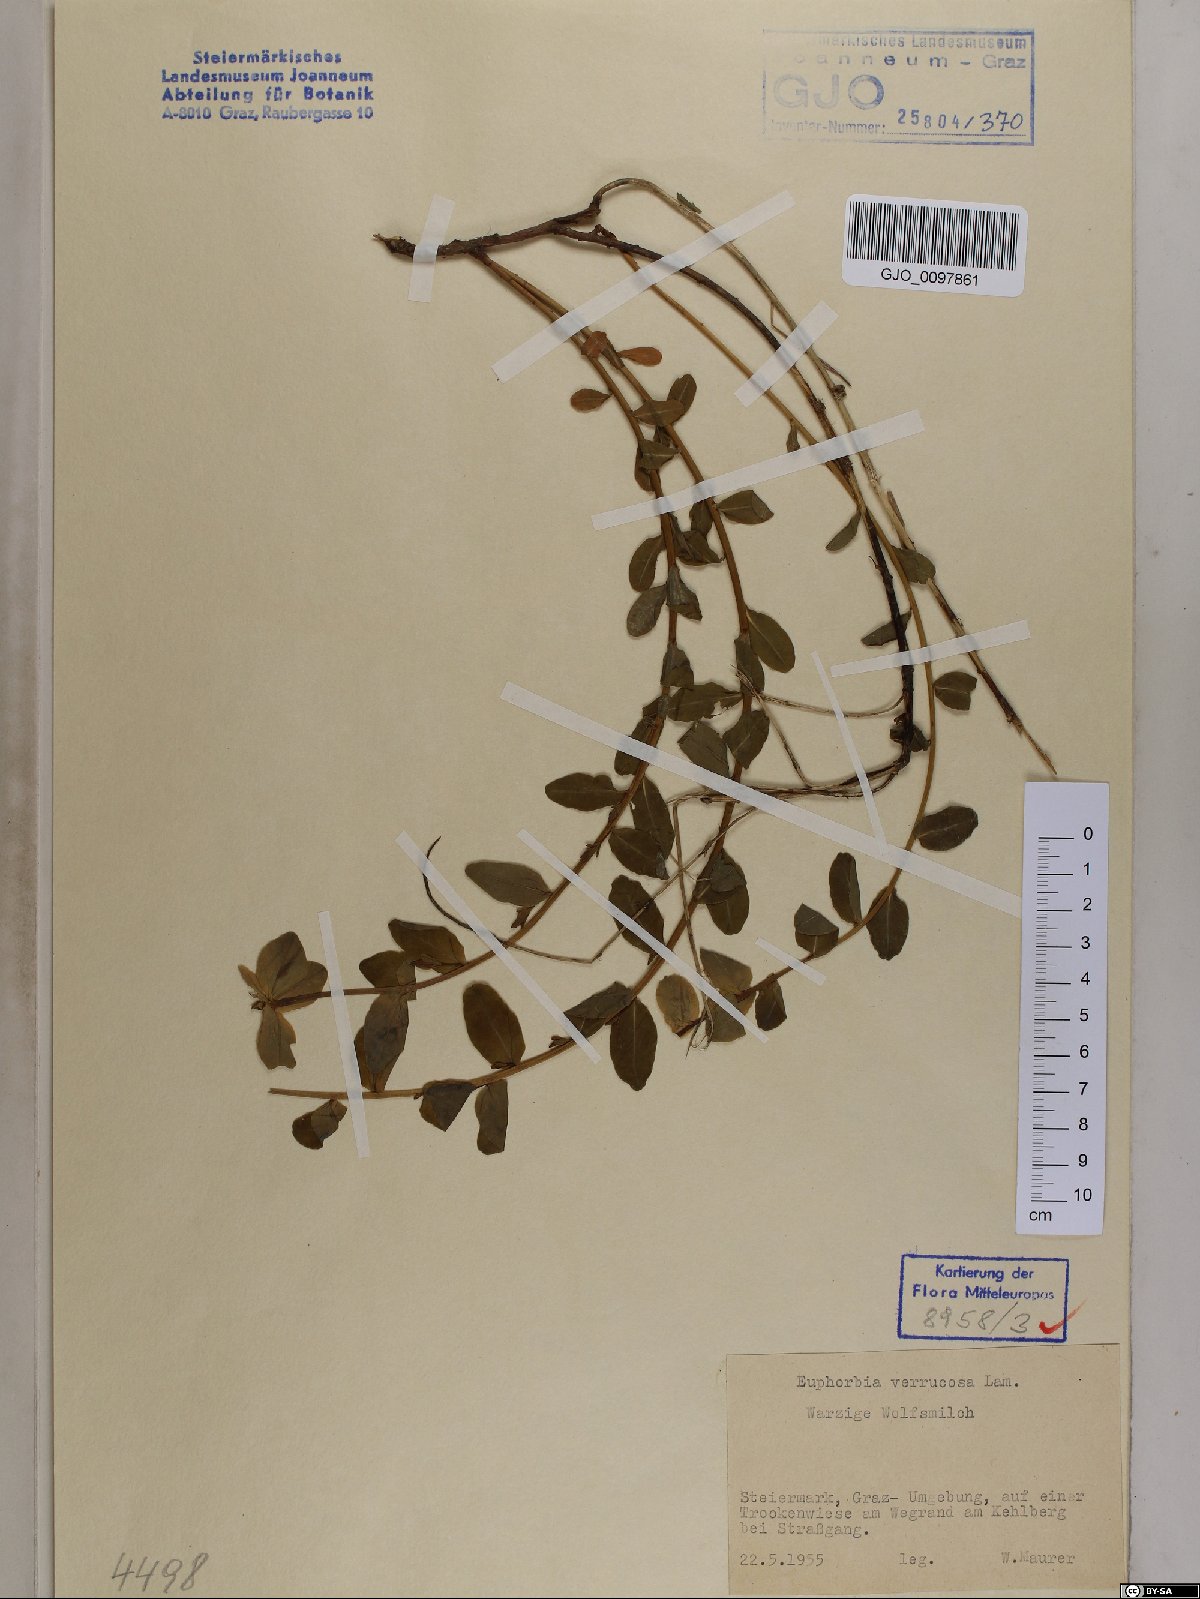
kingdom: Plantae
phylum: Tracheophyta
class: Magnoliopsida
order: Malpighiales
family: Euphorbiaceae
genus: Euphorbia
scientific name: Euphorbia verrucosa
